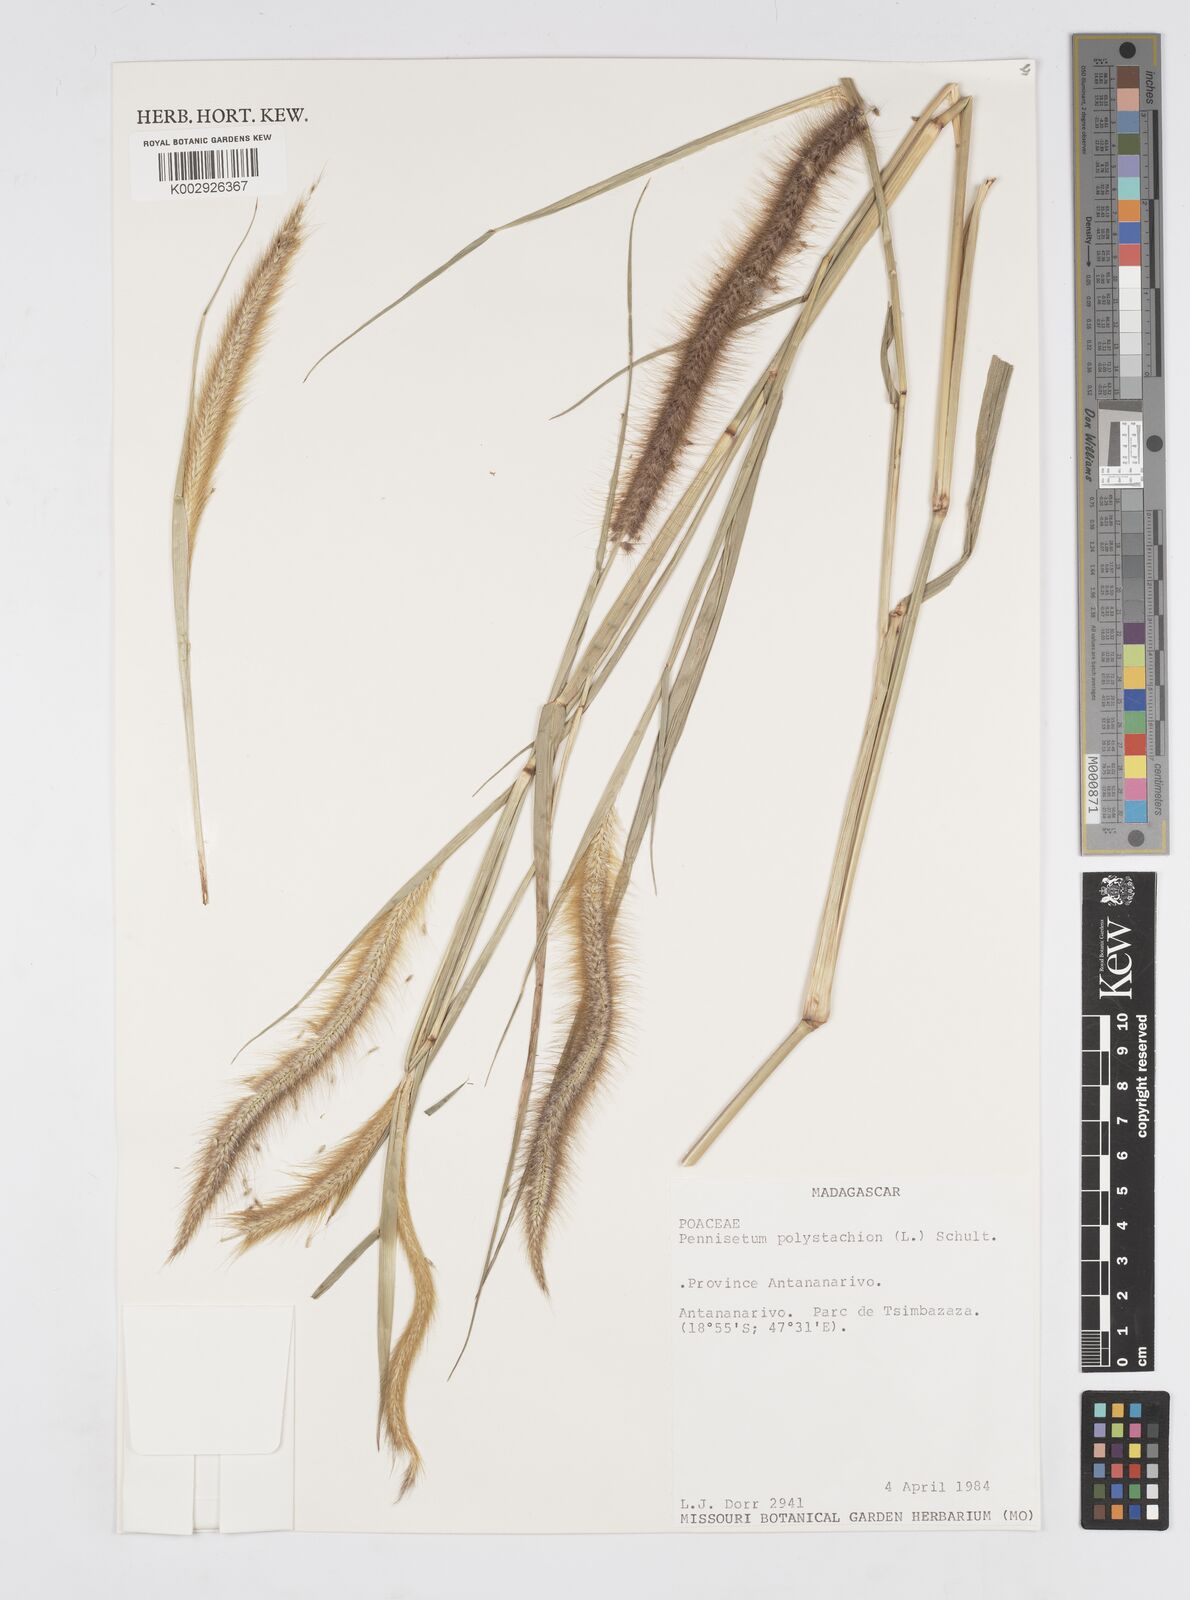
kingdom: Plantae
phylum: Tracheophyta
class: Liliopsida
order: Poales
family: Poaceae
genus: Setaria
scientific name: Setaria parviflora
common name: Knotroot bristle-grass
